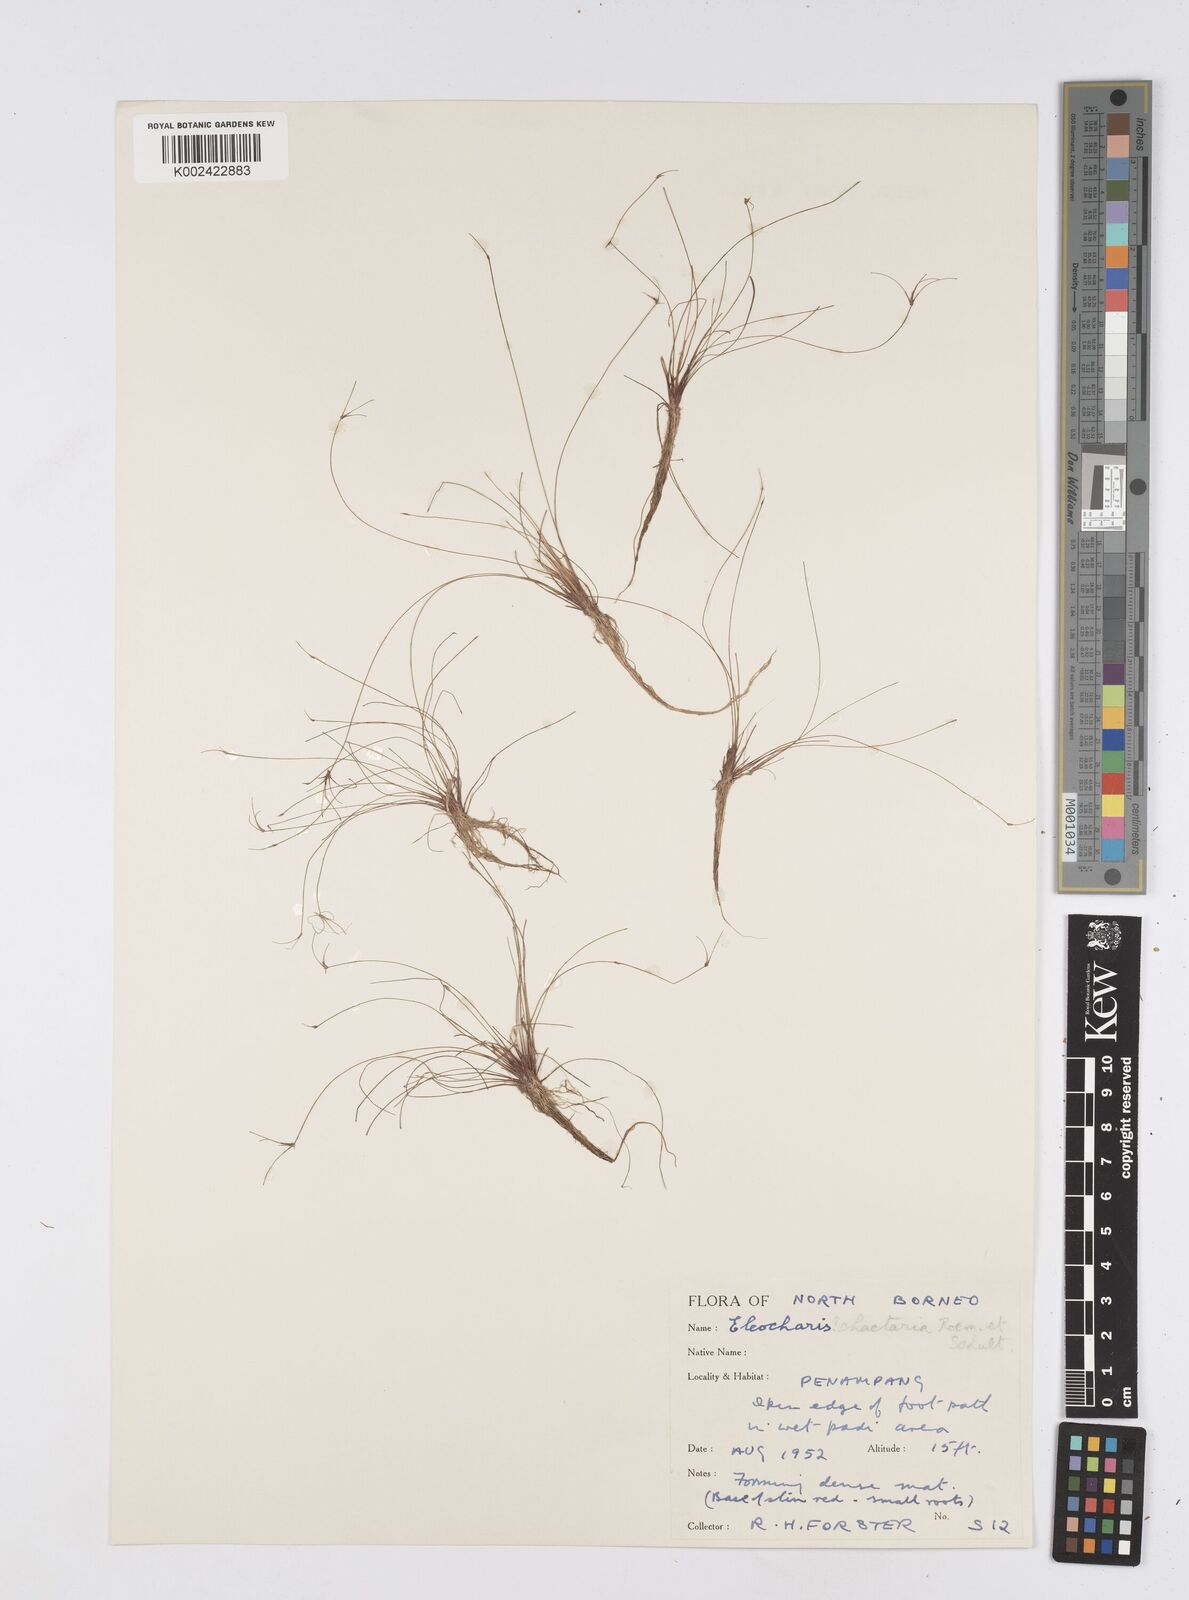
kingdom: Plantae
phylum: Tracheophyta
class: Liliopsida
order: Poales
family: Cyperaceae
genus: Eleocharis
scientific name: Eleocharis retroflexa
